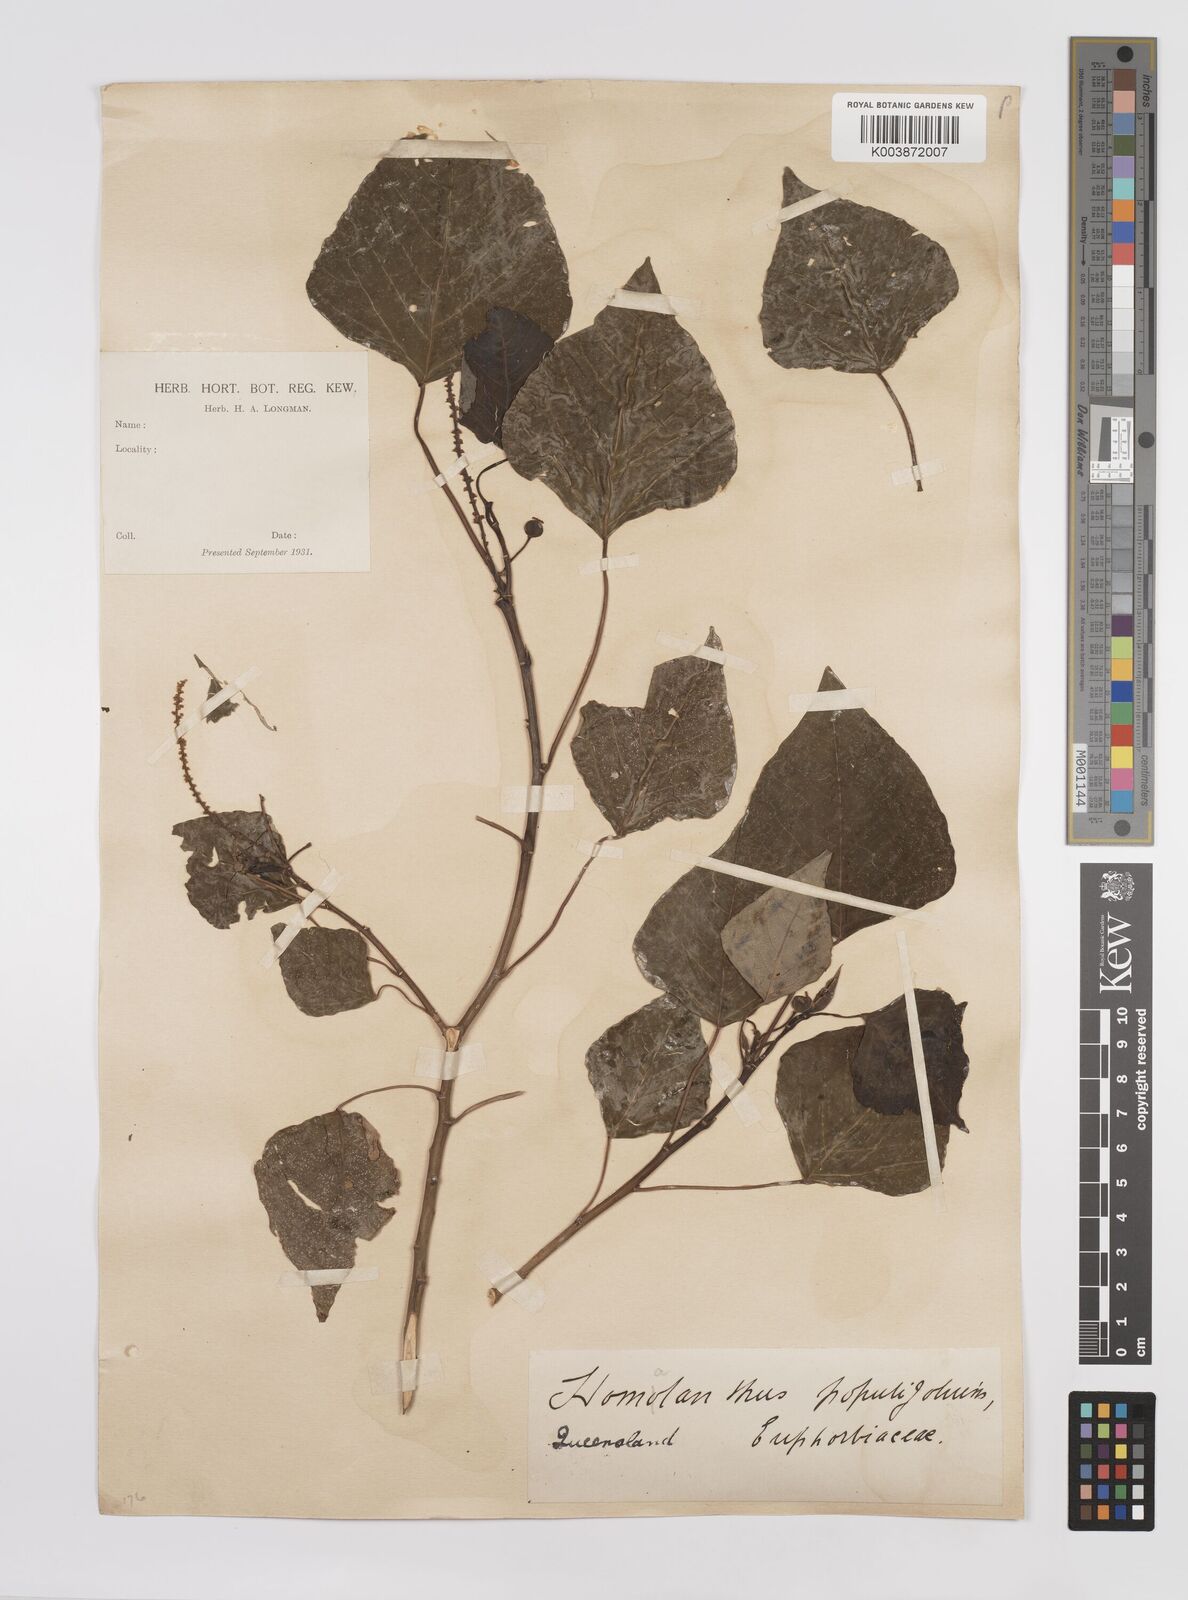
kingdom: Plantae
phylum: Tracheophyta
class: Magnoliopsida
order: Malpighiales
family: Euphorbiaceae
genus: Homalanthus
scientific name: Homalanthus populifolius
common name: Queensland poplar
